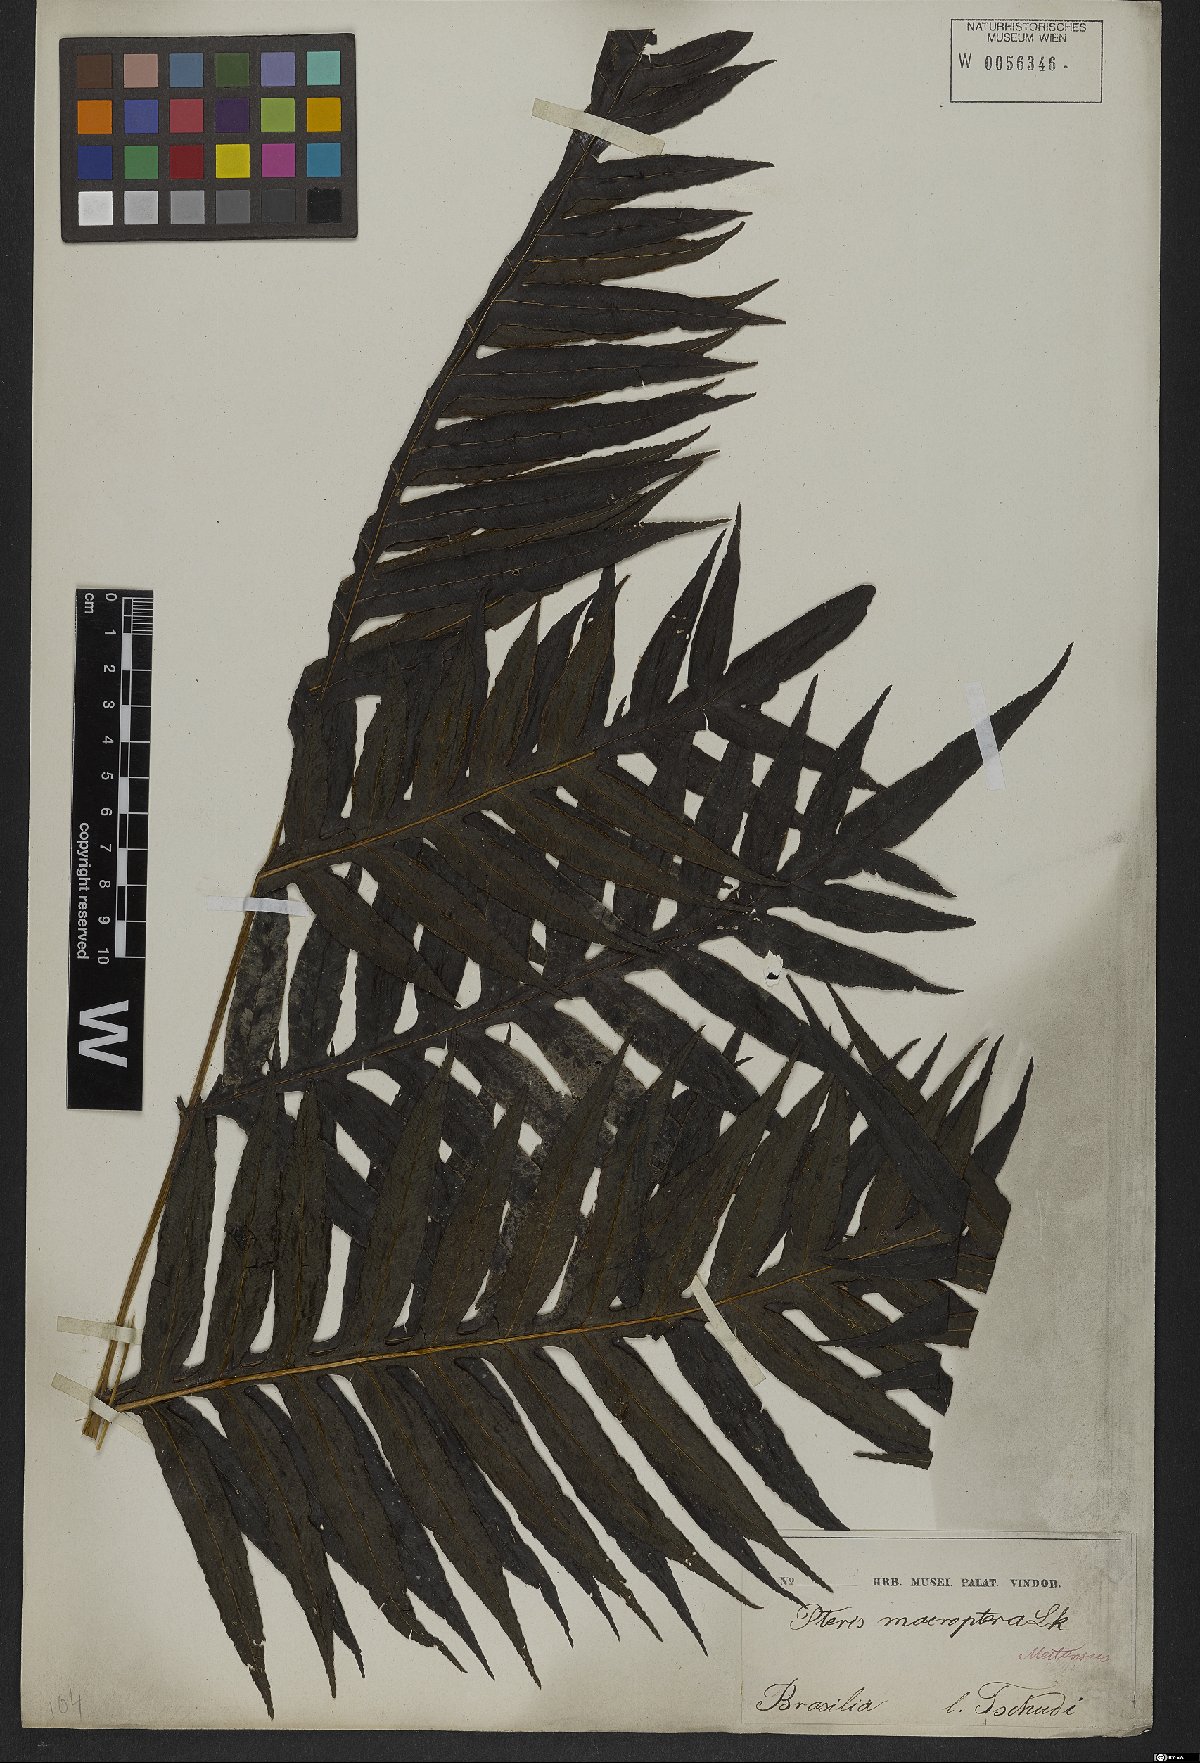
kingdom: Plantae
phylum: Tracheophyta
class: Polypodiopsida
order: Polypodiales
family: Pteridaceae
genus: Pteris
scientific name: Pteris altissima
